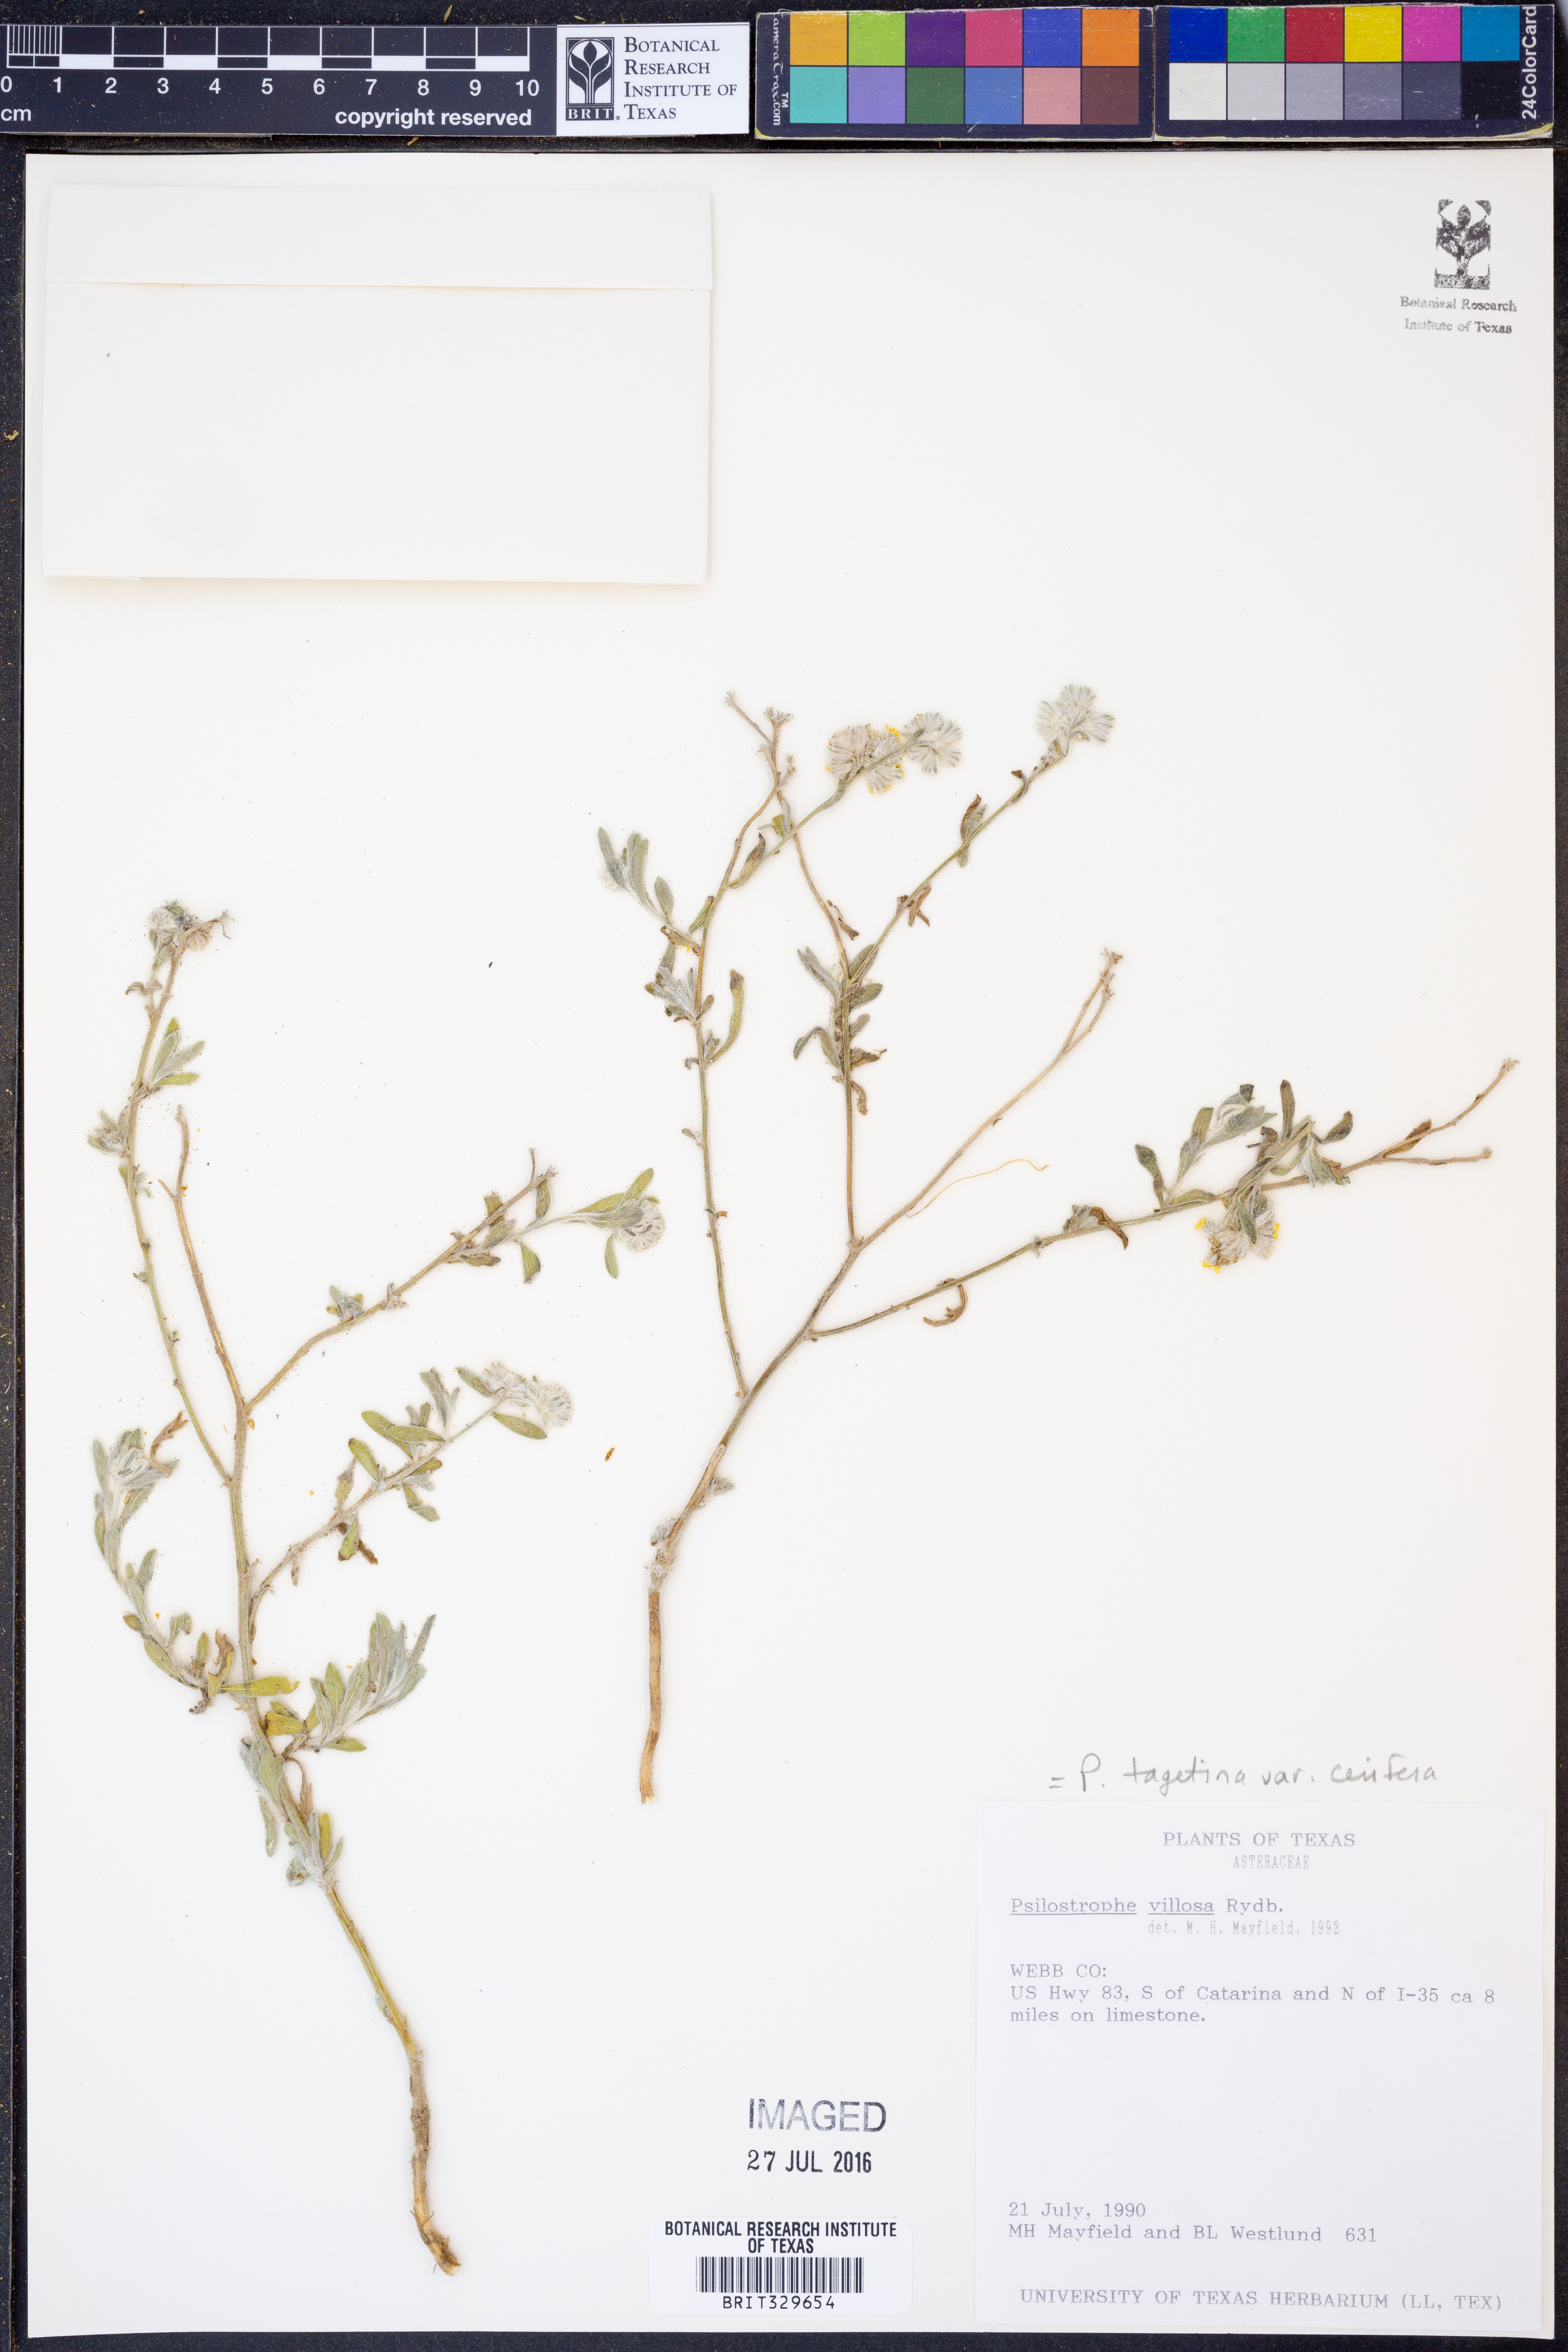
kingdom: Plantae
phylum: Tracheophyta
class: Magnoliopsida
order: Asterales
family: Asteraceae
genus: Psilostrophe
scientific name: Psilostrophe villosa
